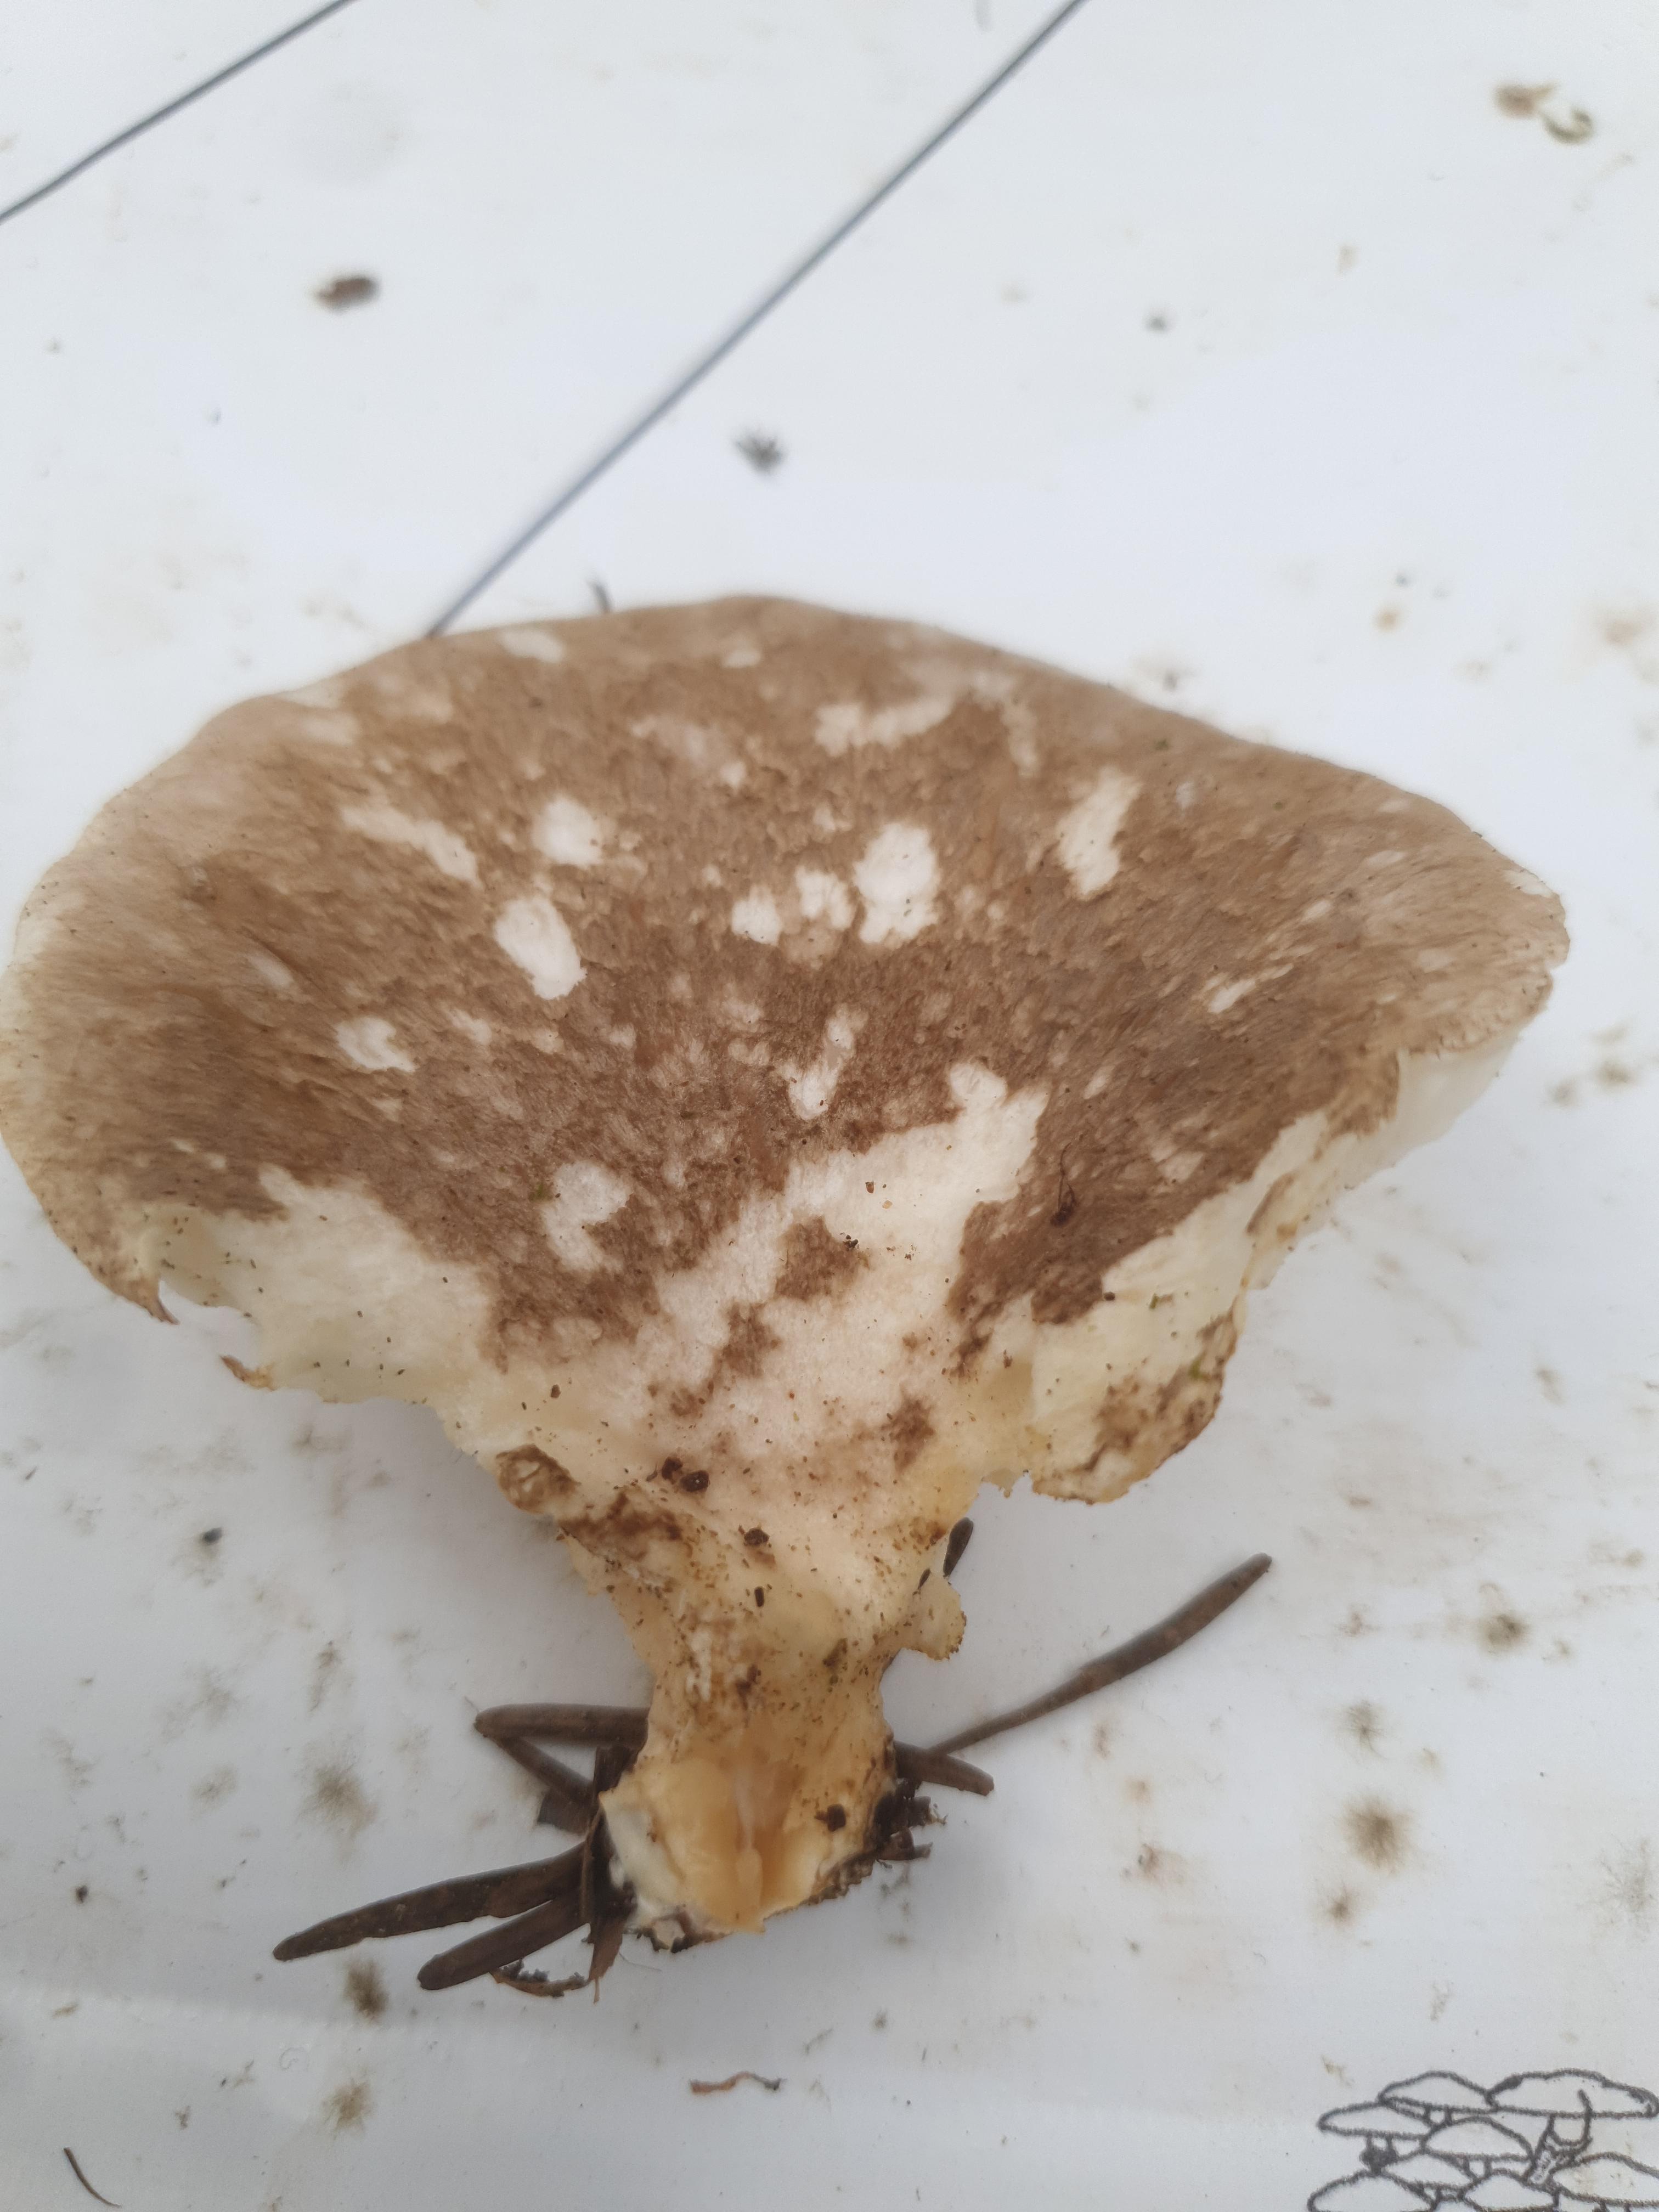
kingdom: Fungi
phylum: Basidiomycota
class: Agaricomycetes
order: Agaricales
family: Pleurotaceae
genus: Pleurotus
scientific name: Pleurotus dryinus
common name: korkagtig østershat
